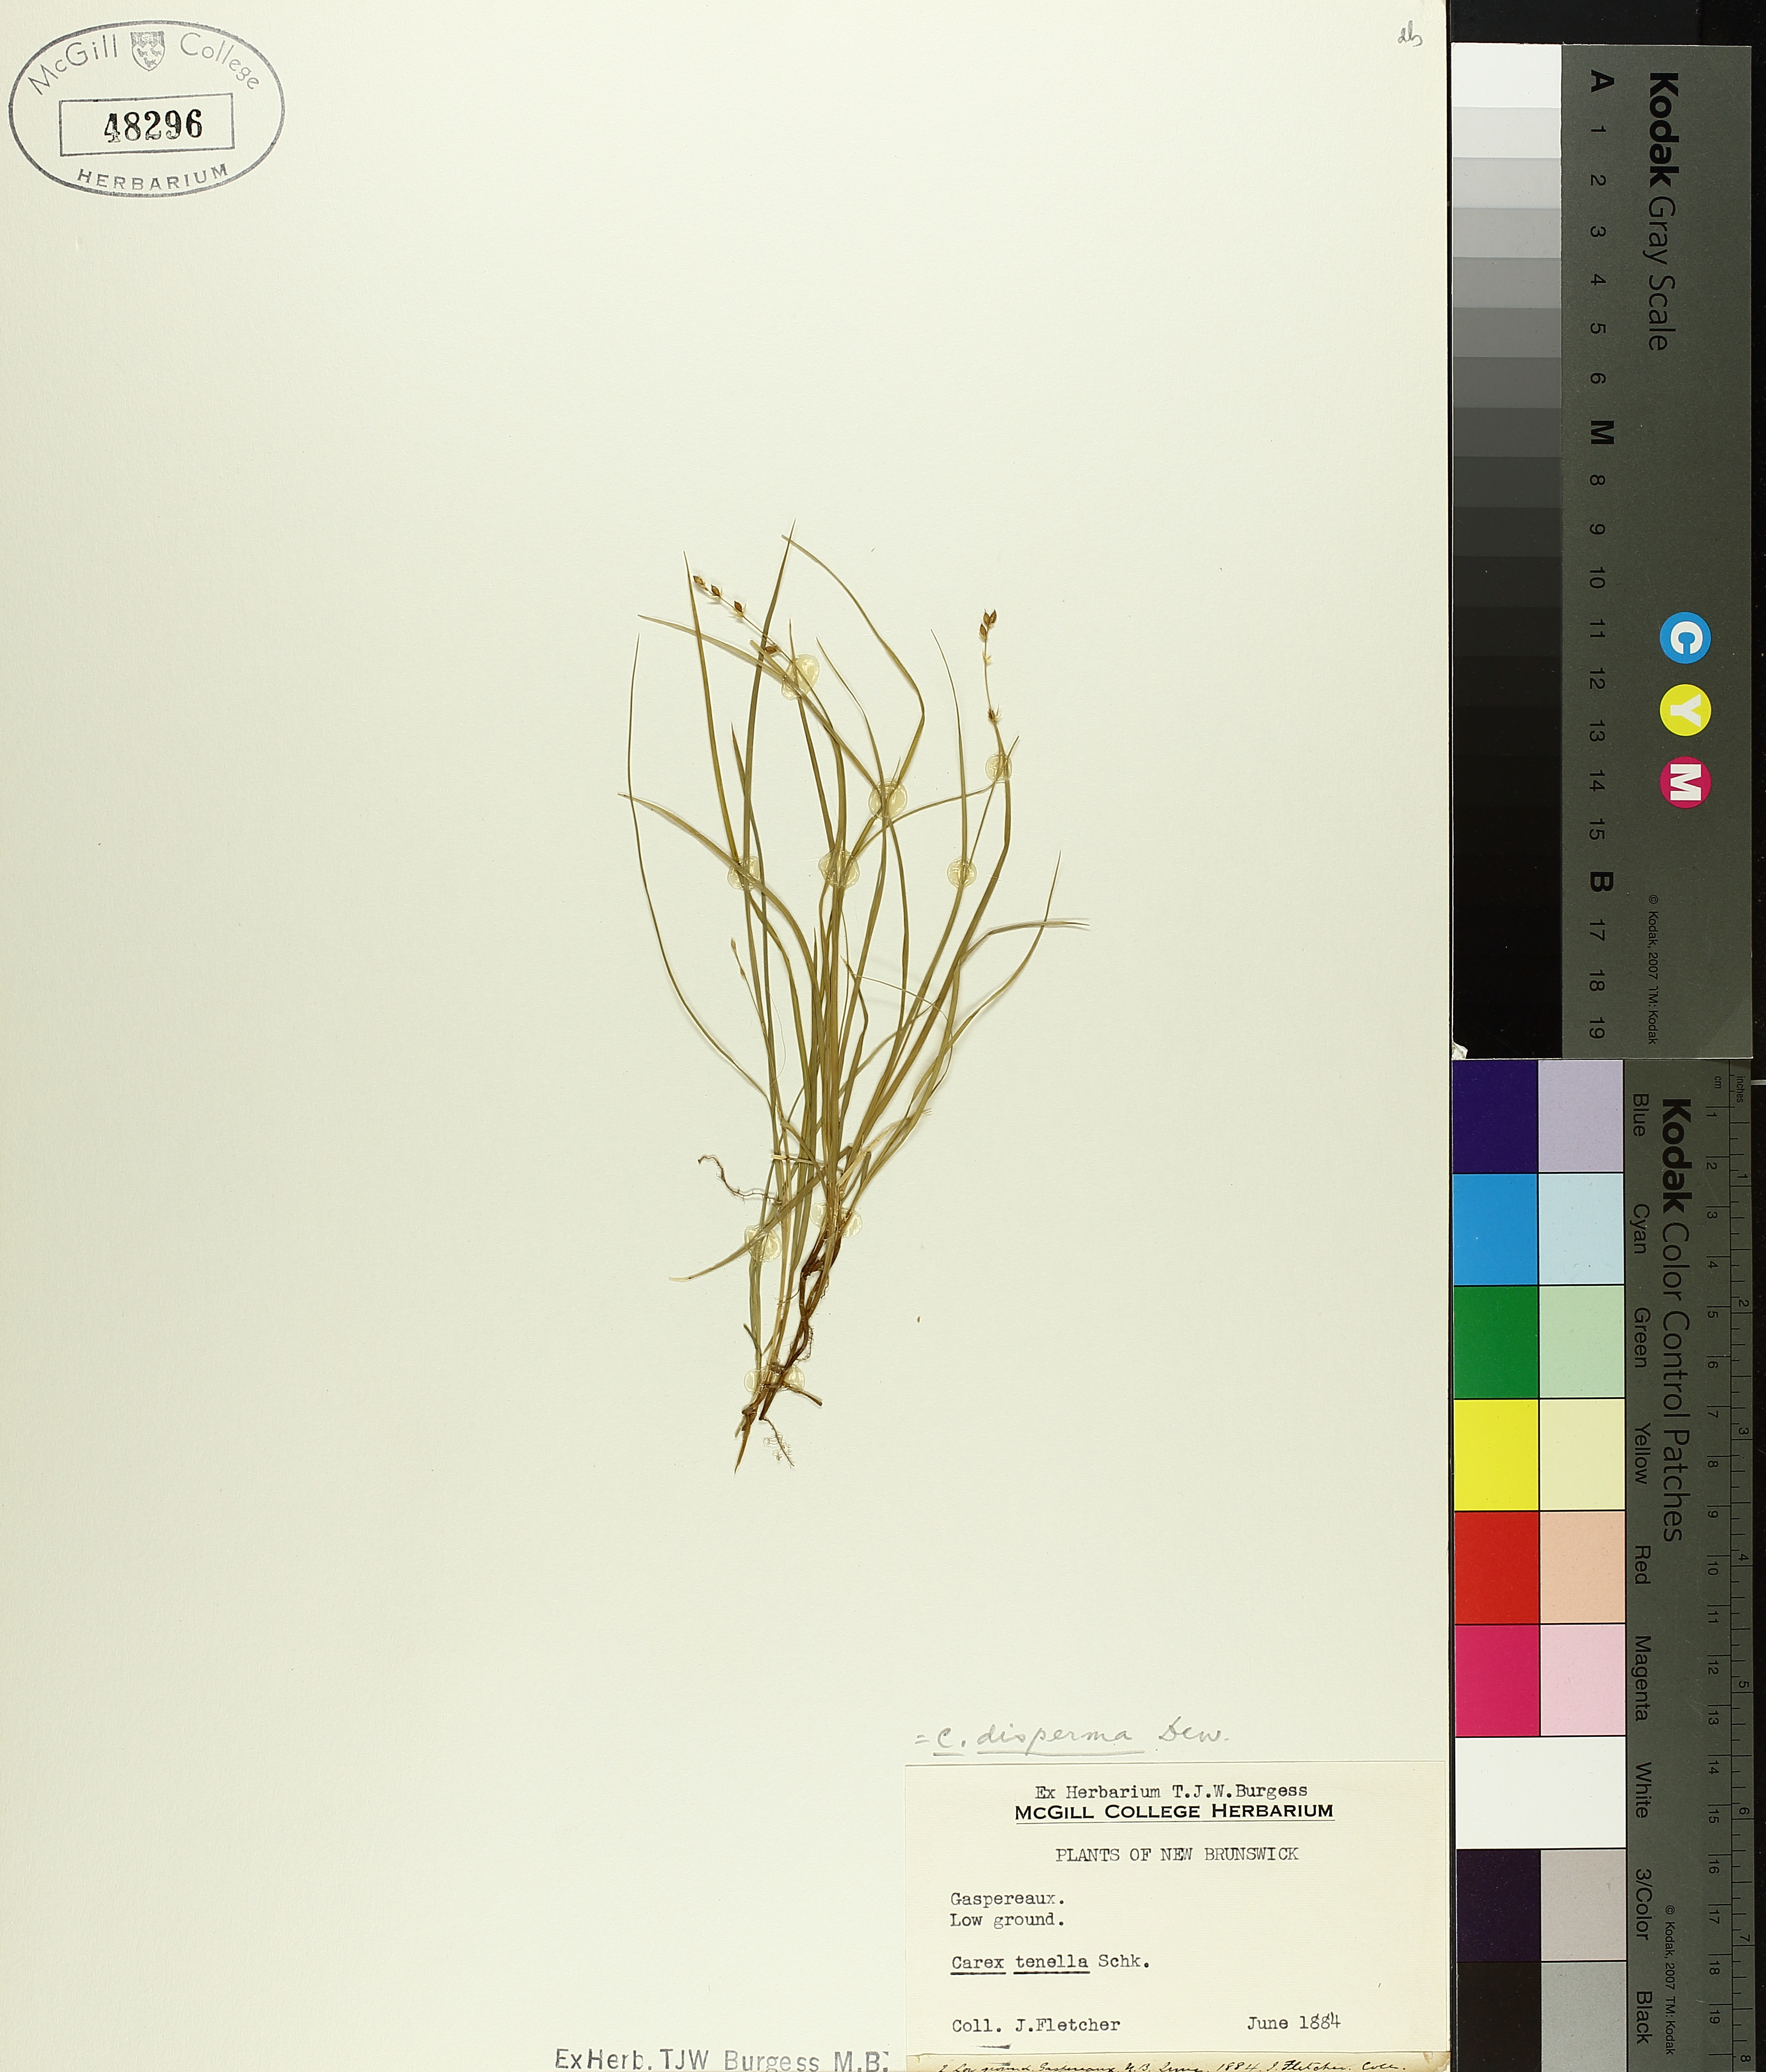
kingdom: Plantae
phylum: Tracheophyta
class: Liliopsida
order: Poales
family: Cyperaceae
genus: Carex
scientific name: Carex disperma
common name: Short-leaved sedge
